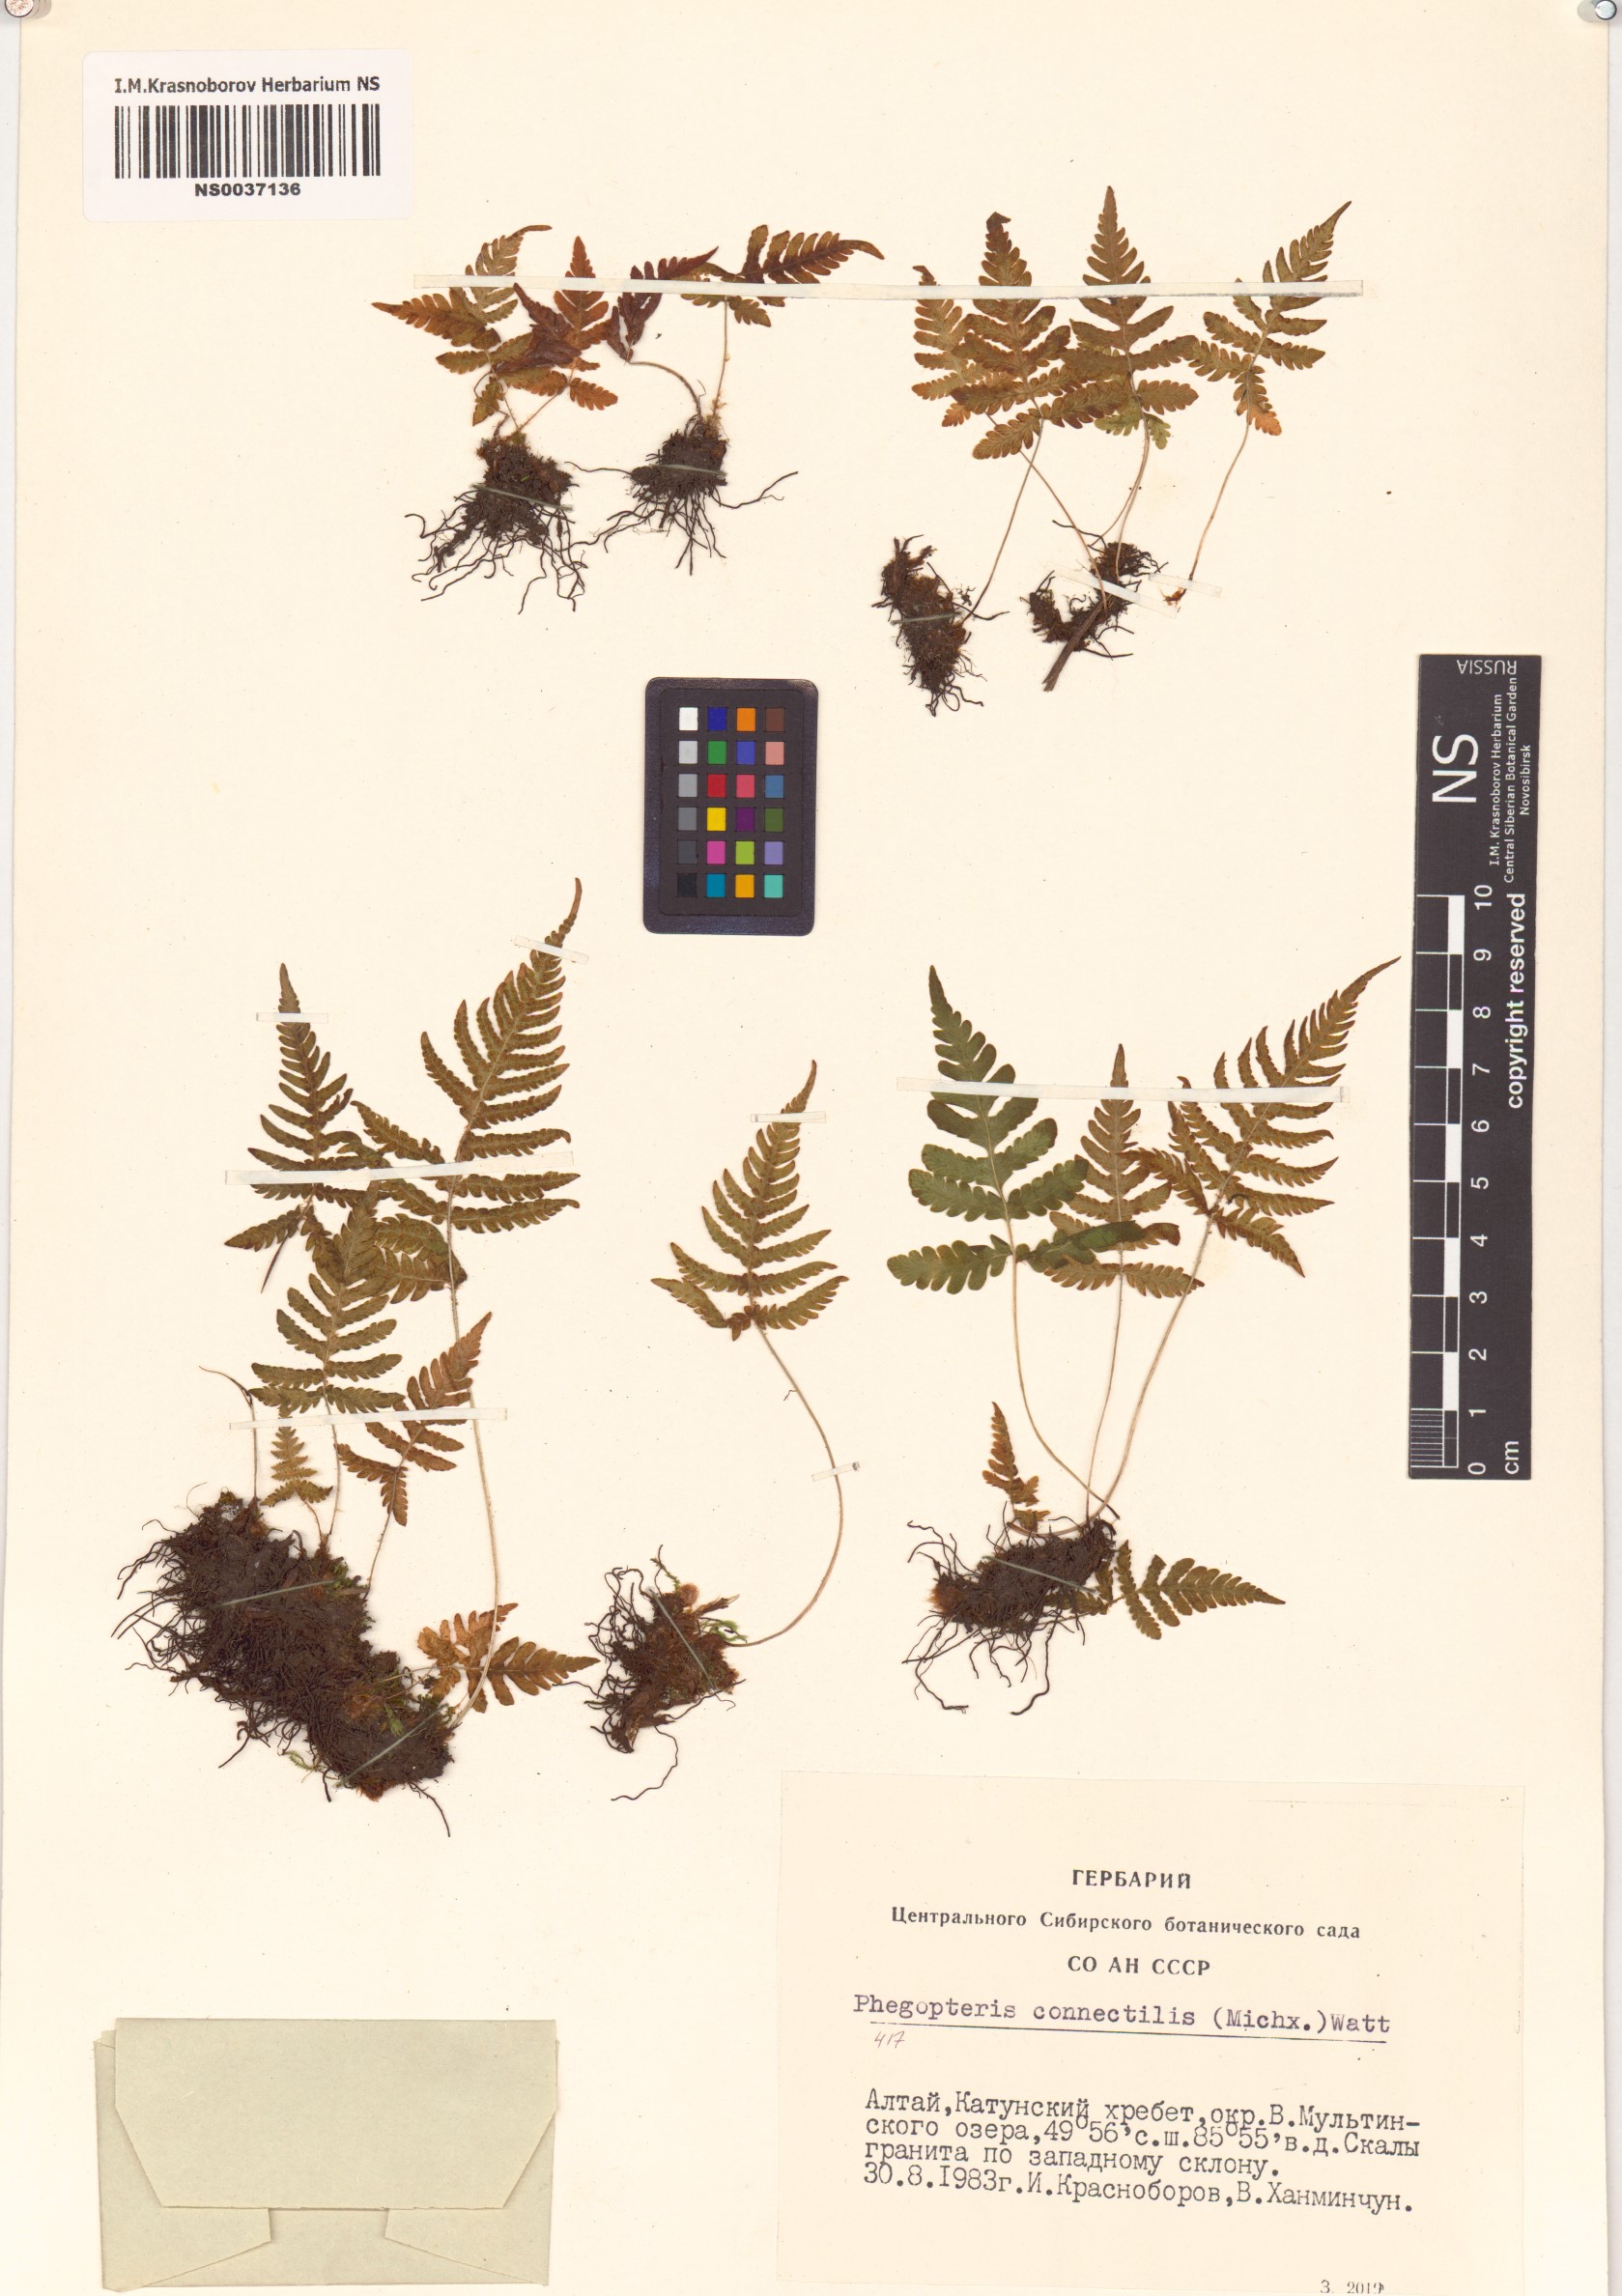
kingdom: Plantae
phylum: Tracheophyta
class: Polypodiopsida
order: Polypodiales
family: Thelypteridaceae
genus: Phegopteris
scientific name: Phegopteris connectilis
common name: Beech fern
